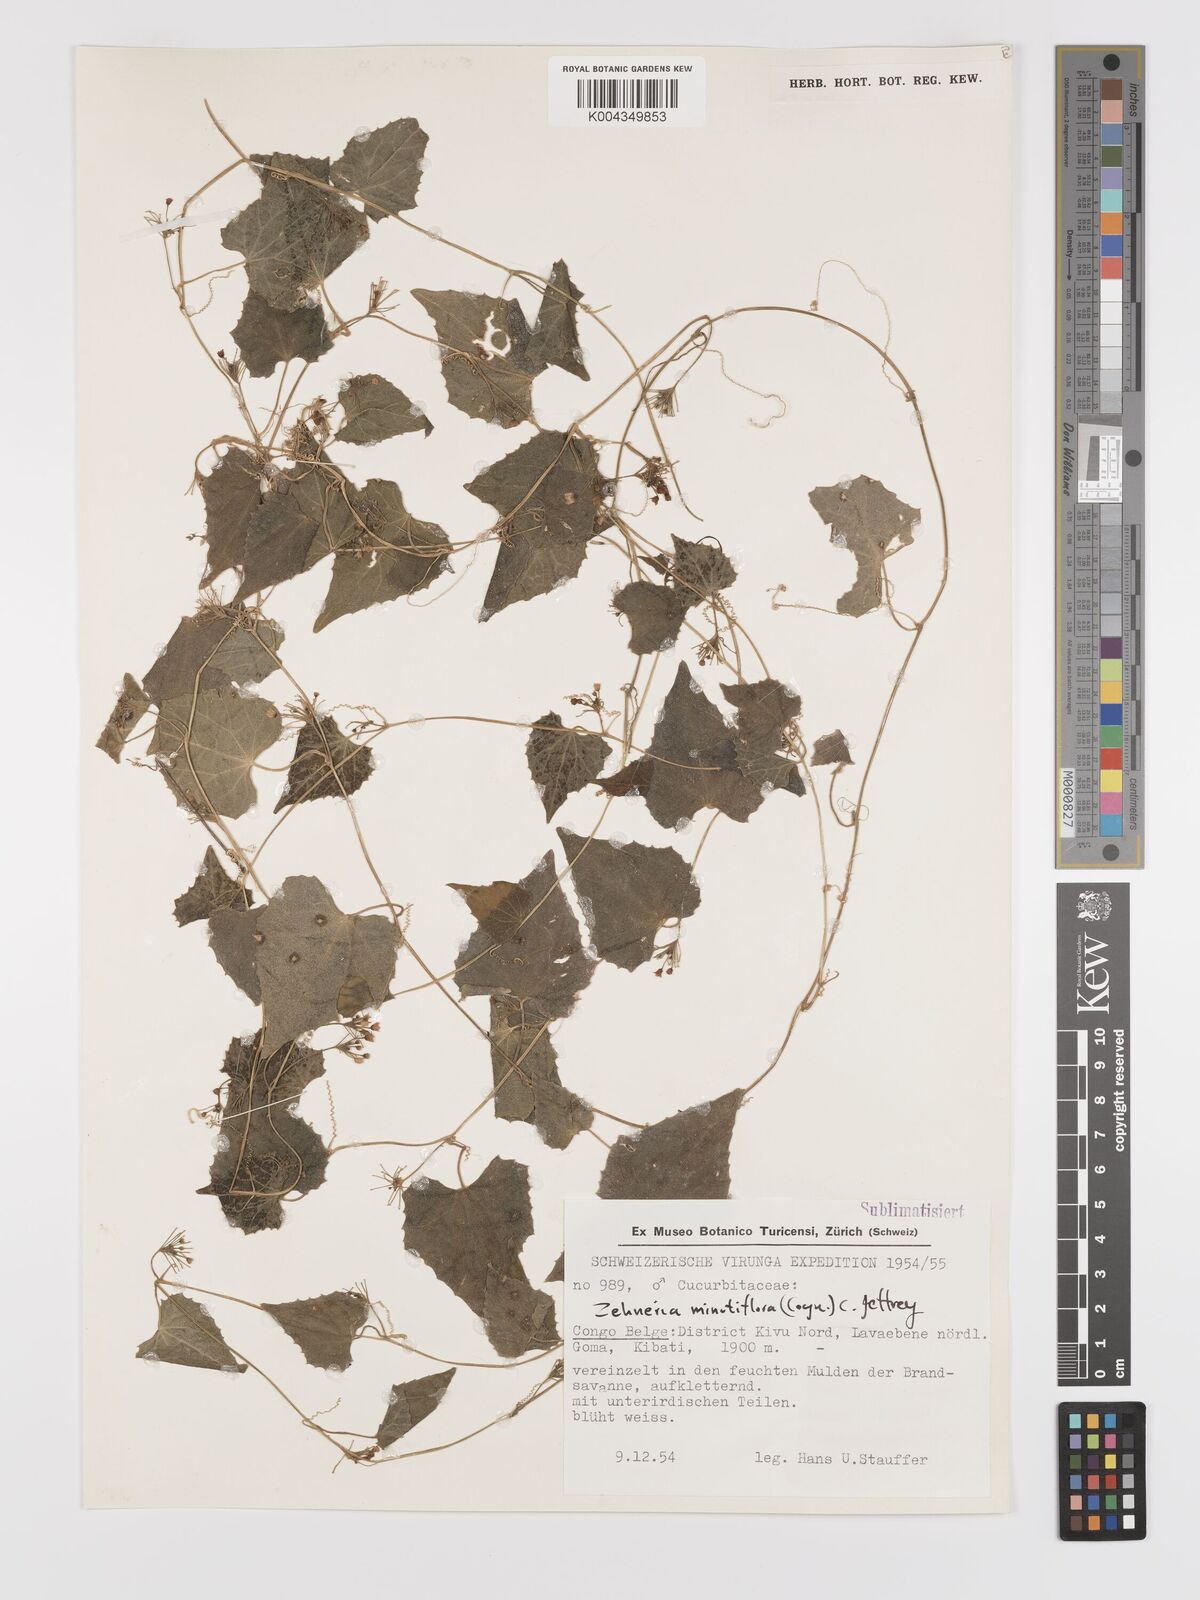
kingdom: Plantae
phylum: Tracheophyta
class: Magnoliopsida
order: Cucurbitales
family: Cucurbitaceae
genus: Zehneria
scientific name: Zehneria minutiflora
